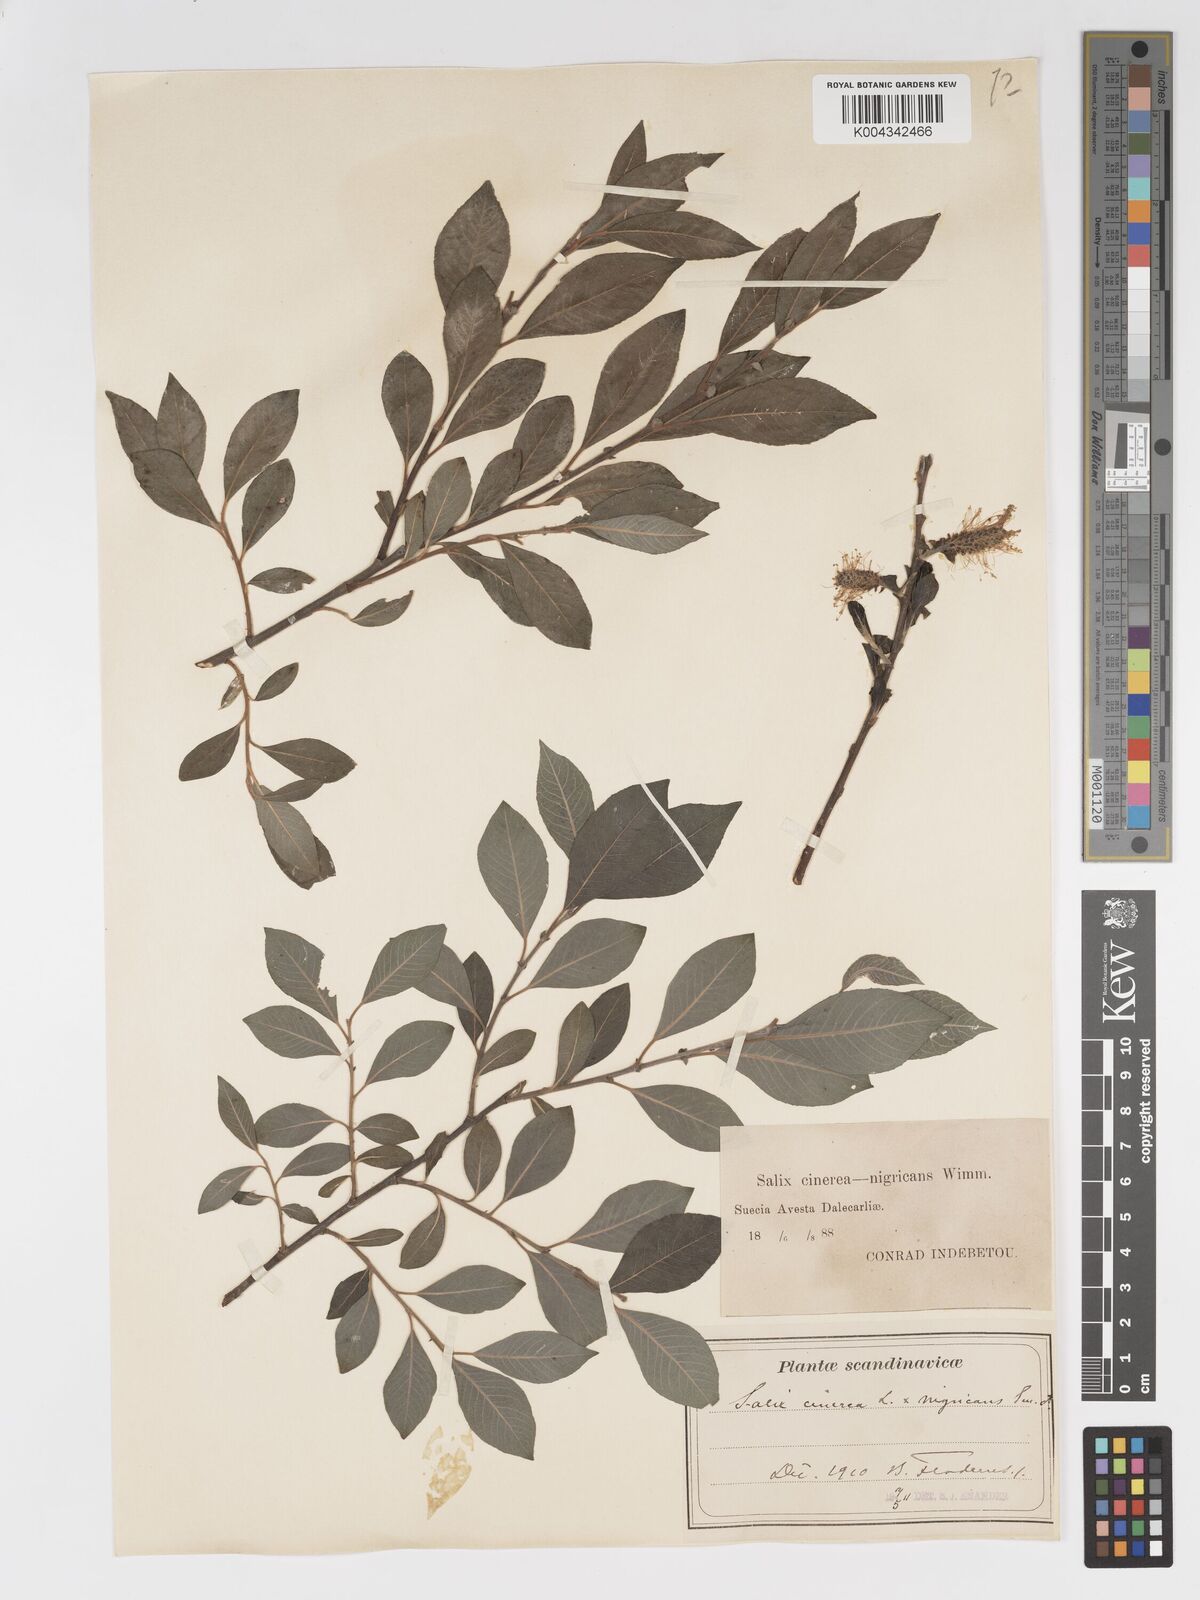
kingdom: Plantae
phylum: Tracheophyta
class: Magnoliopsida
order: Malpighiales
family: Salicaceae
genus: Salix
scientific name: Salix
